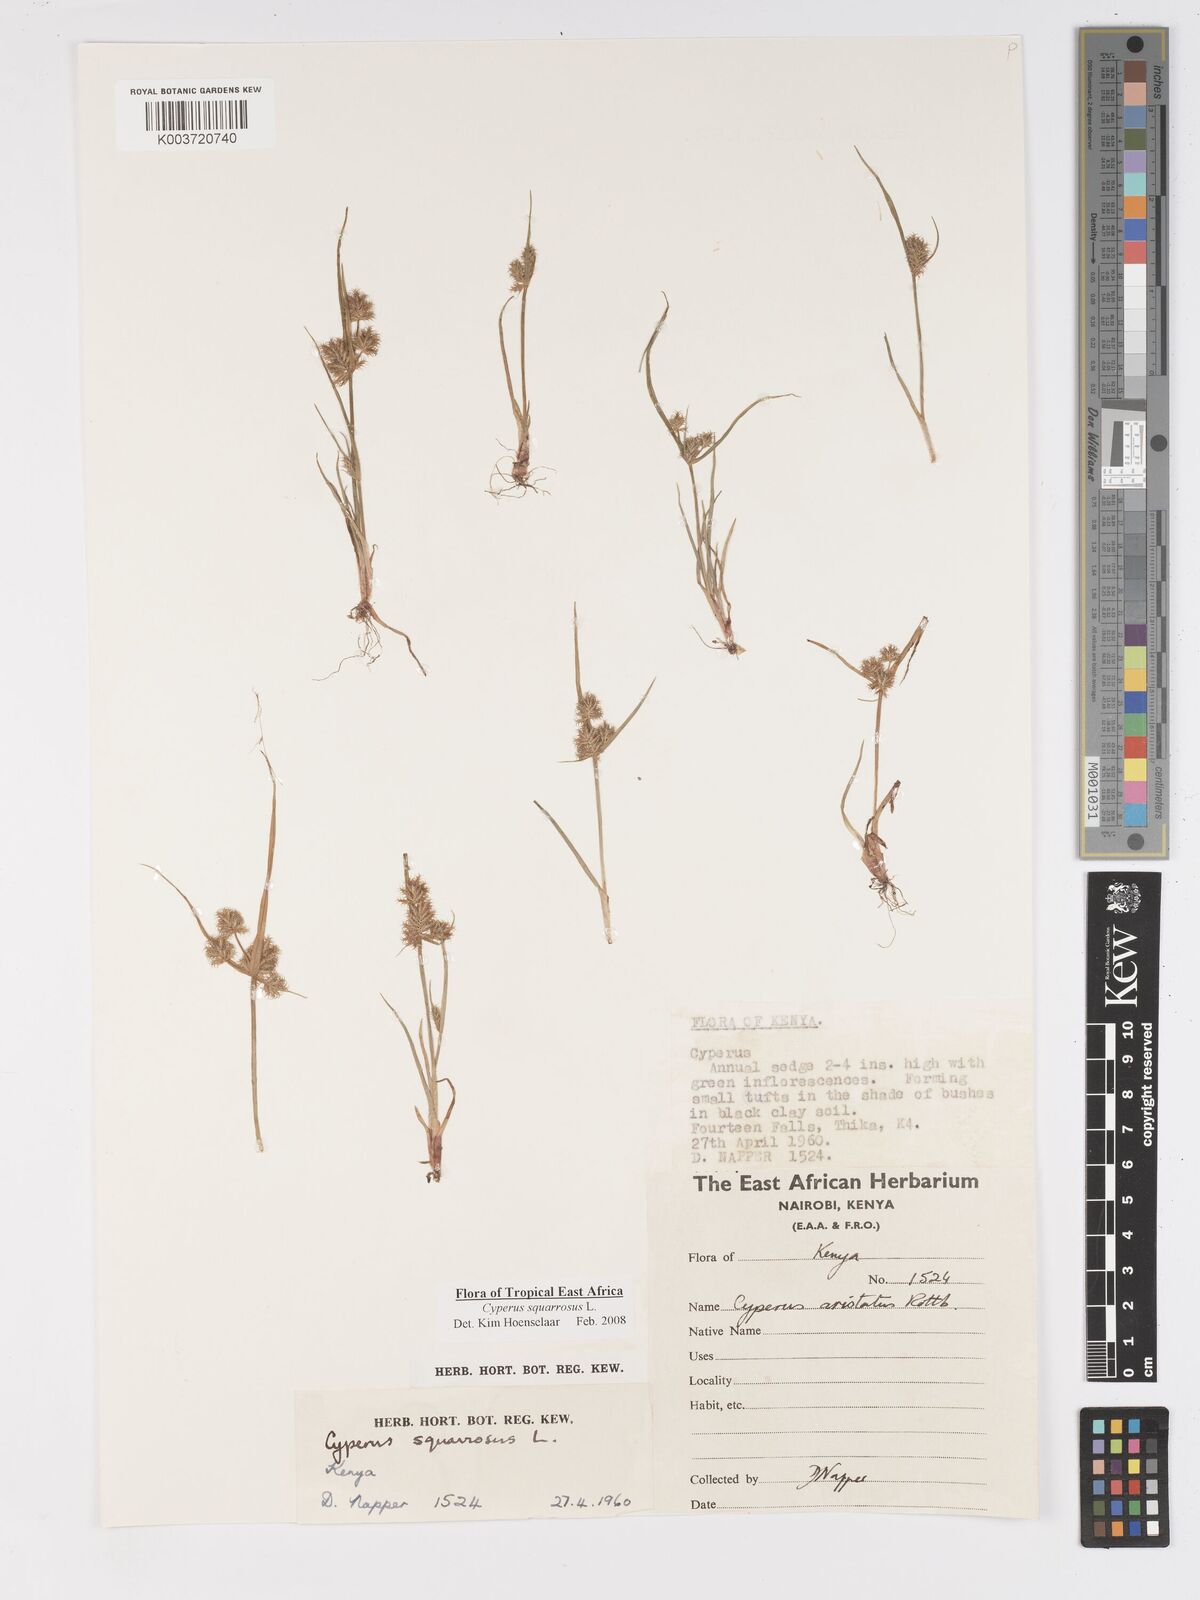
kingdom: Plantae
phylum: Tracheophyta
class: Liliopsida
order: Poales
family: Cyperaceae
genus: Cyperus
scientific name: Cyperus squarrosus
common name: Awned cyperus
